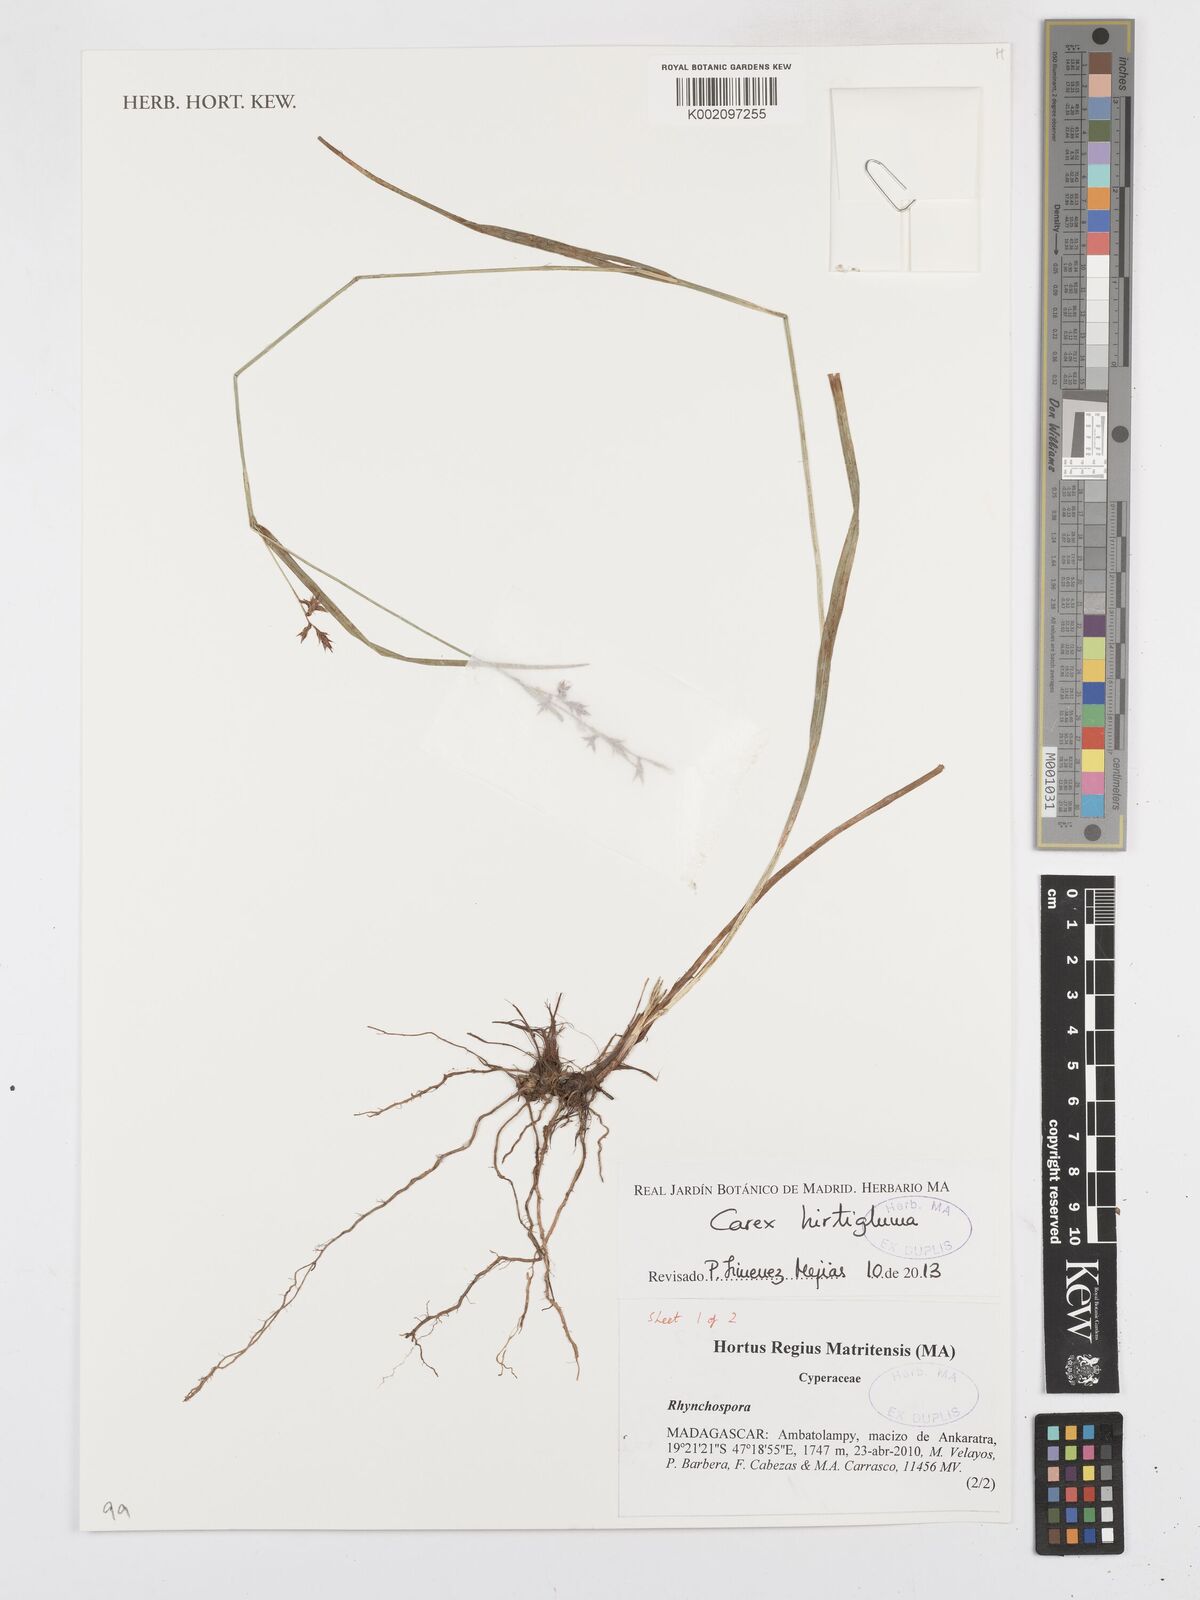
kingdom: Plantae
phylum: Tracheophyta
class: Liliopsida
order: Poales
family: Cyperaceae
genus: Carex
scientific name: Carex hirtigluma
